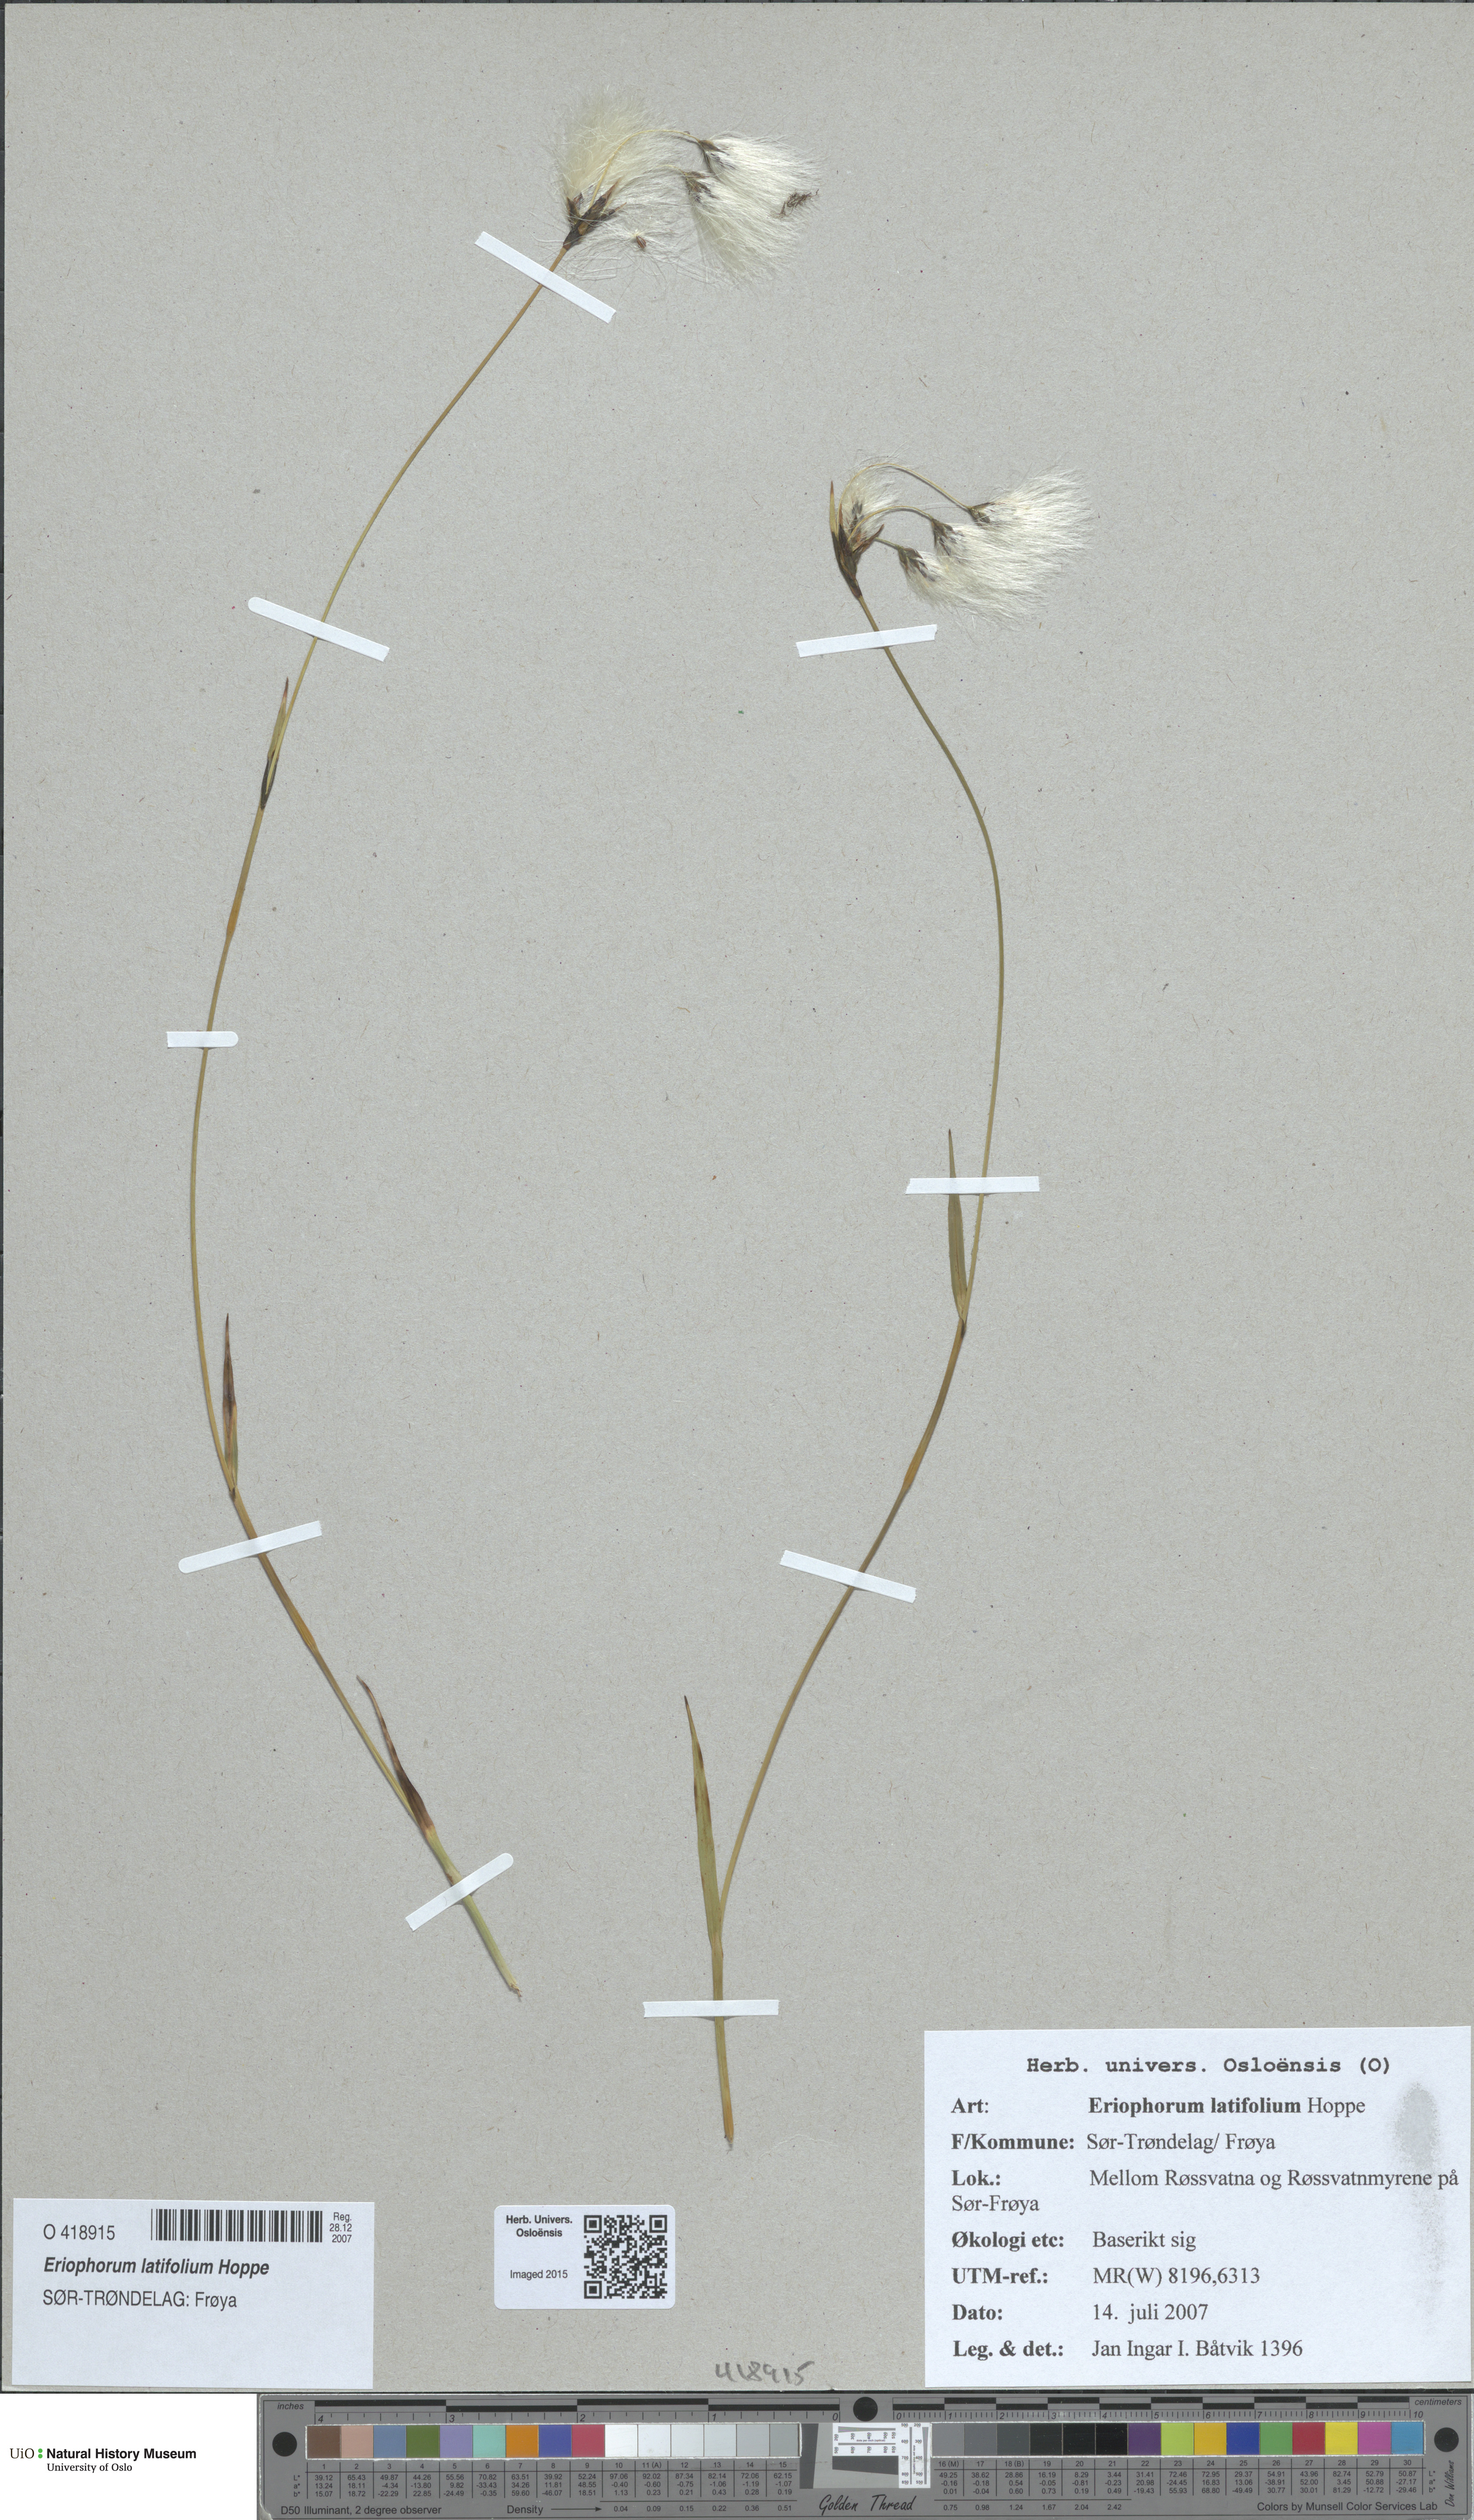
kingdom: Plantae
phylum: Tracheophyta
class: Liliopsida
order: Poales
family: Cyperaceae
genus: Eriophorum
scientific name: Eriophorum latifolium
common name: Broad-leaved cottongrass
